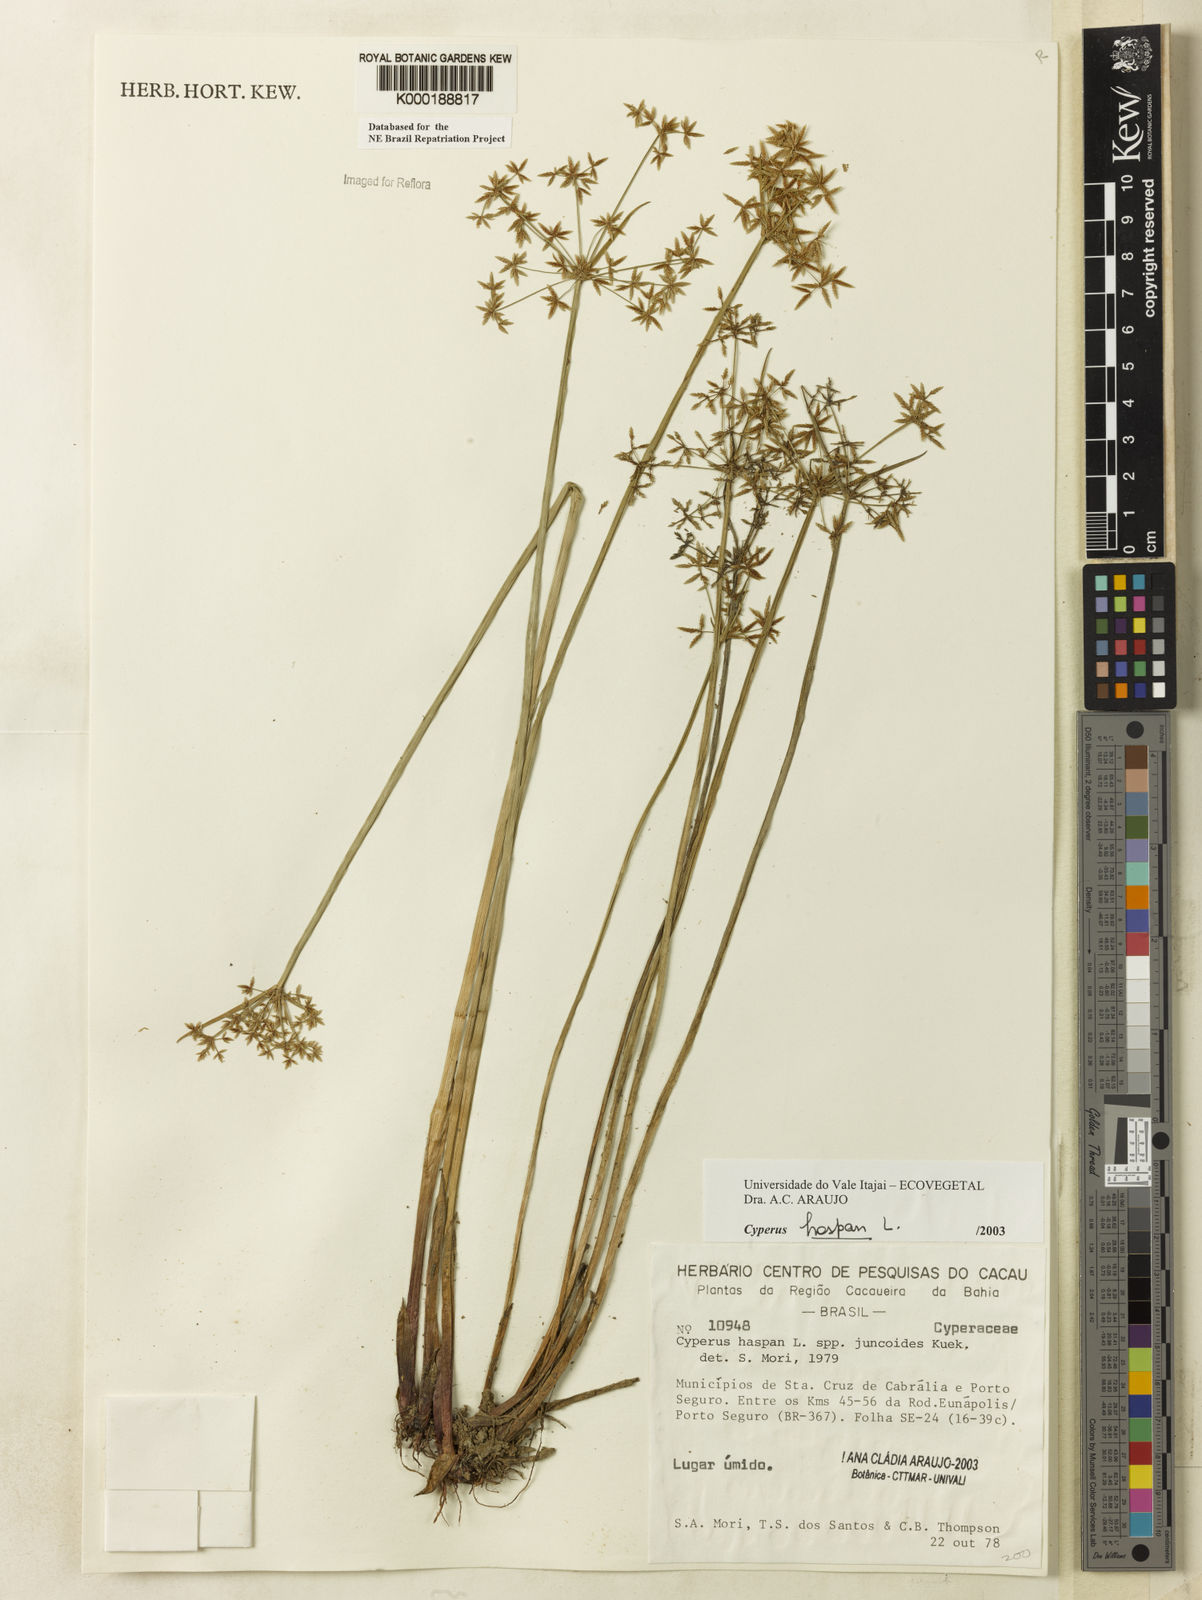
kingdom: Plantae
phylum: Tracheophyta
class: Liliopsida
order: Poales
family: Cyperaceae
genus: Cyperus
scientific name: Cyperus haspan
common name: Haspan flatsedge
